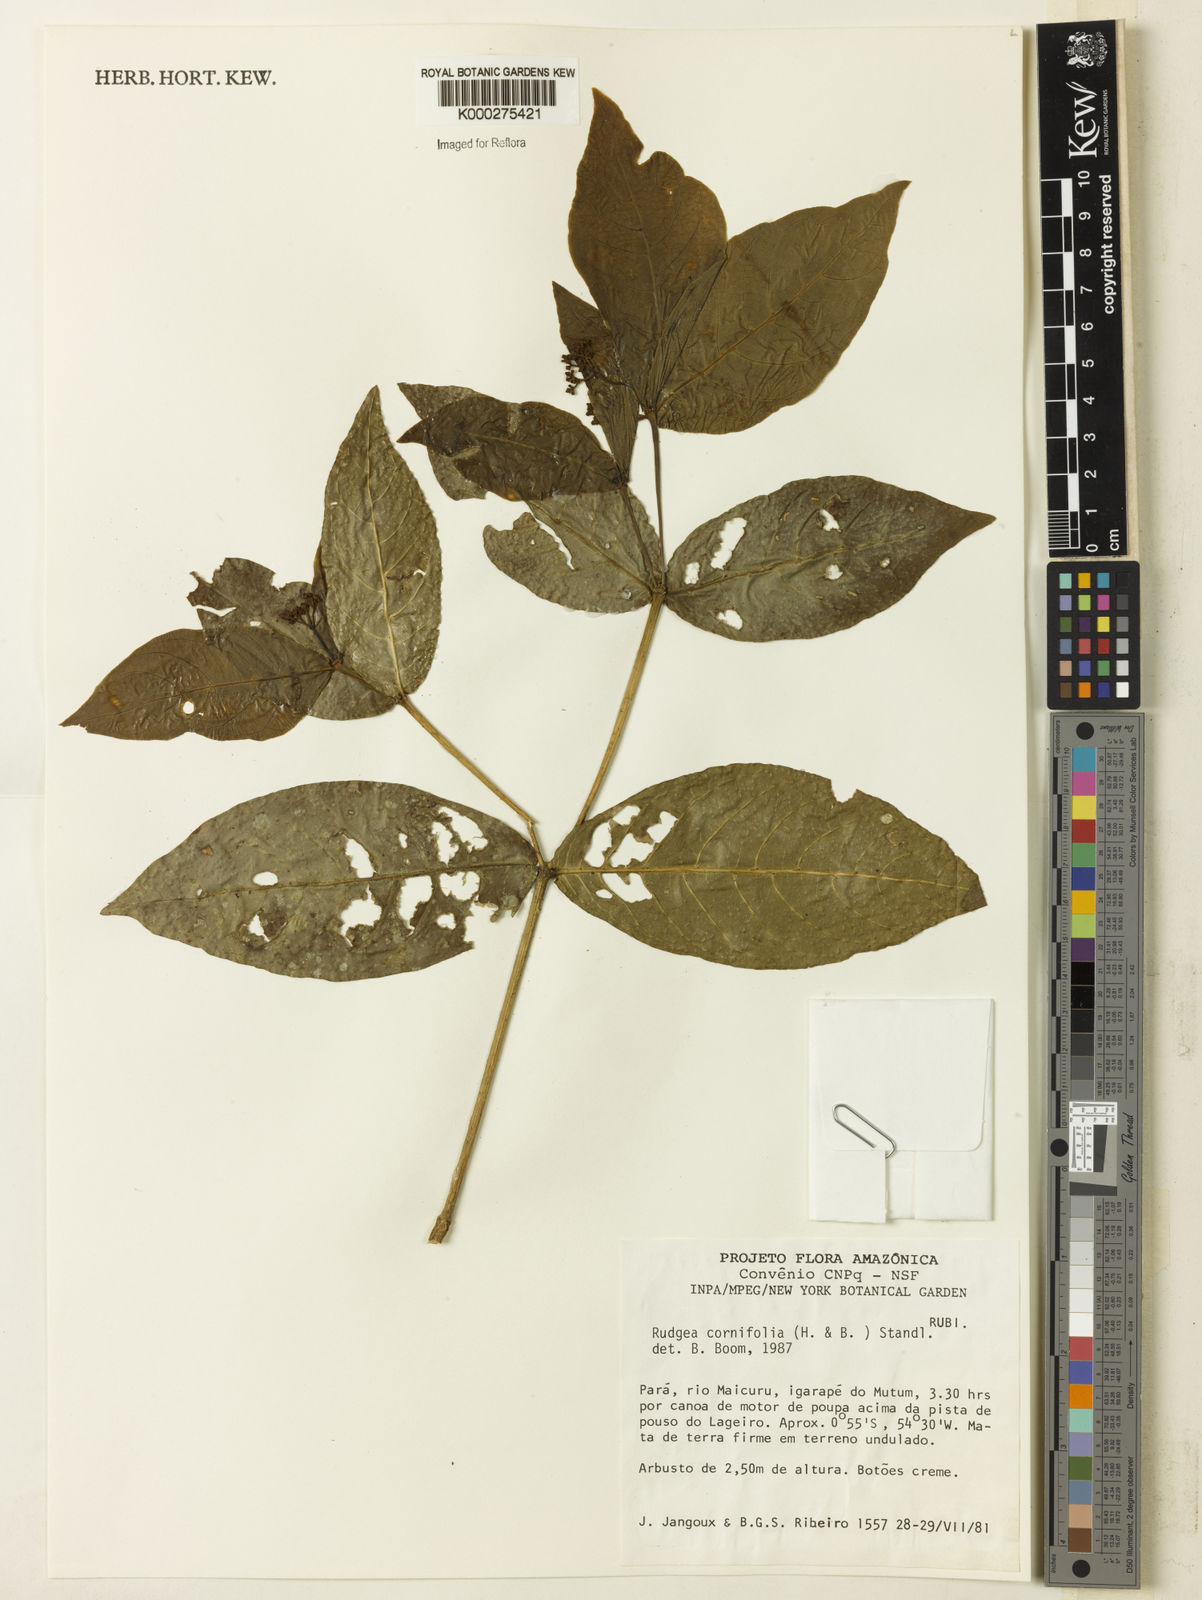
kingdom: Plantae
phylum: Tracheophyta
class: Magnoliopsida
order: Gentianales
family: Rubiaceae
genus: Rudgea
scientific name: Rudgea cornifolia
